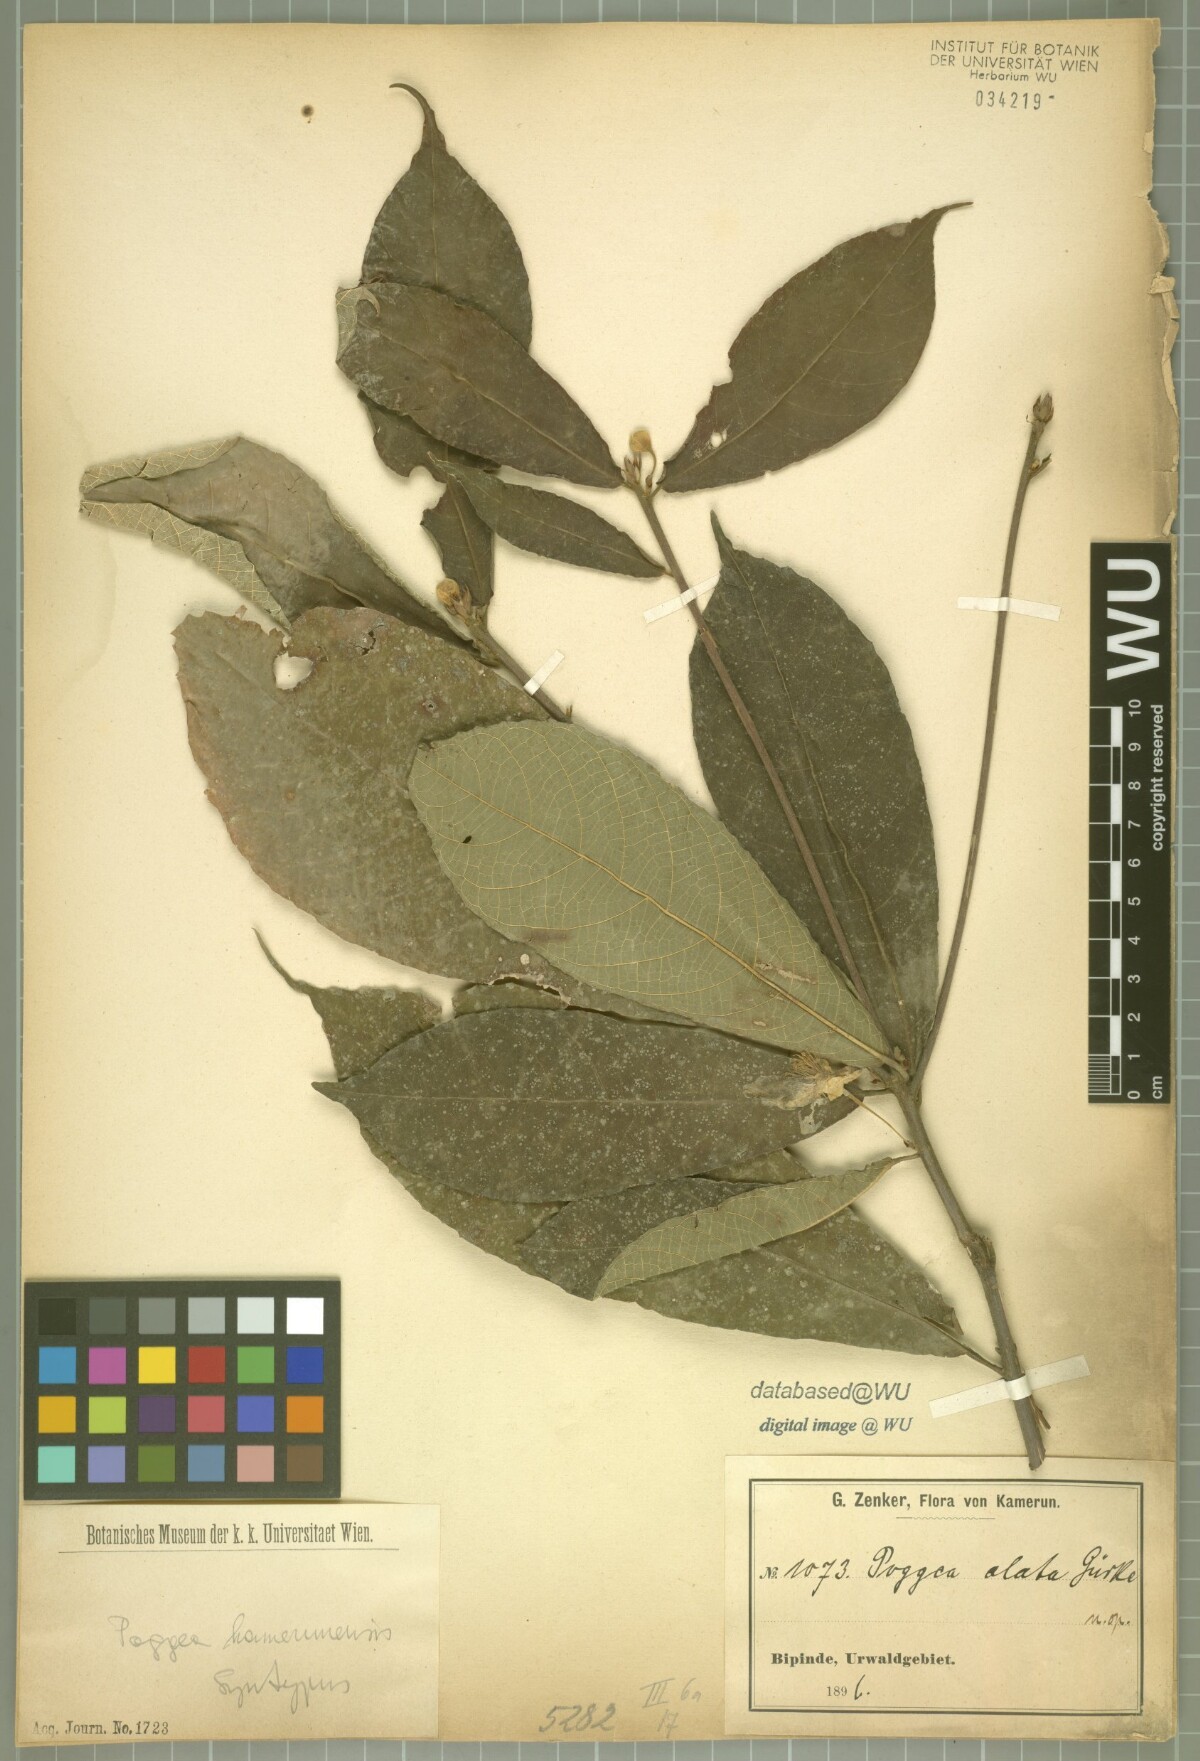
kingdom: Plantae
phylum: Tracheophyta
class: Magnoliopsida
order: Malpighiales
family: Achariaceae
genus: Poggea
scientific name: Poggea alata
